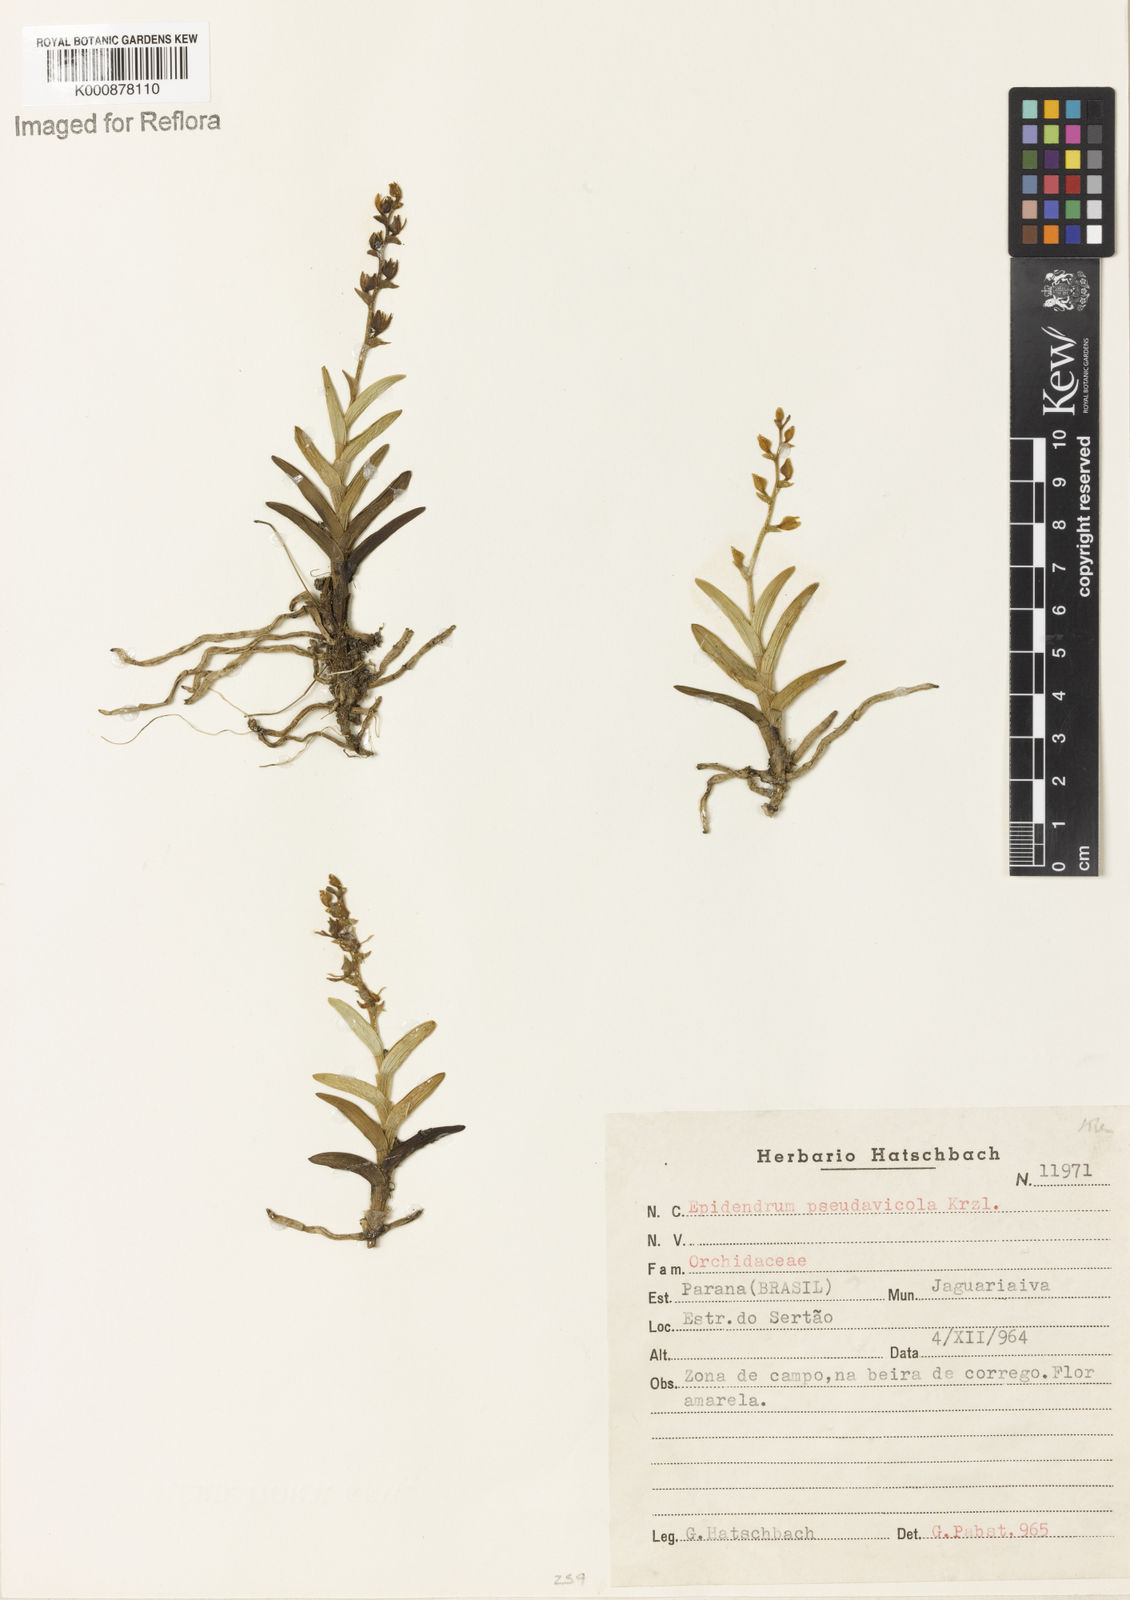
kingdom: Plantae
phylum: Tracheophyta
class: Liliopsida
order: Asparagales
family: Orchidaceae
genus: Epidendrum
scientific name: Epidendrum pseudavicula
